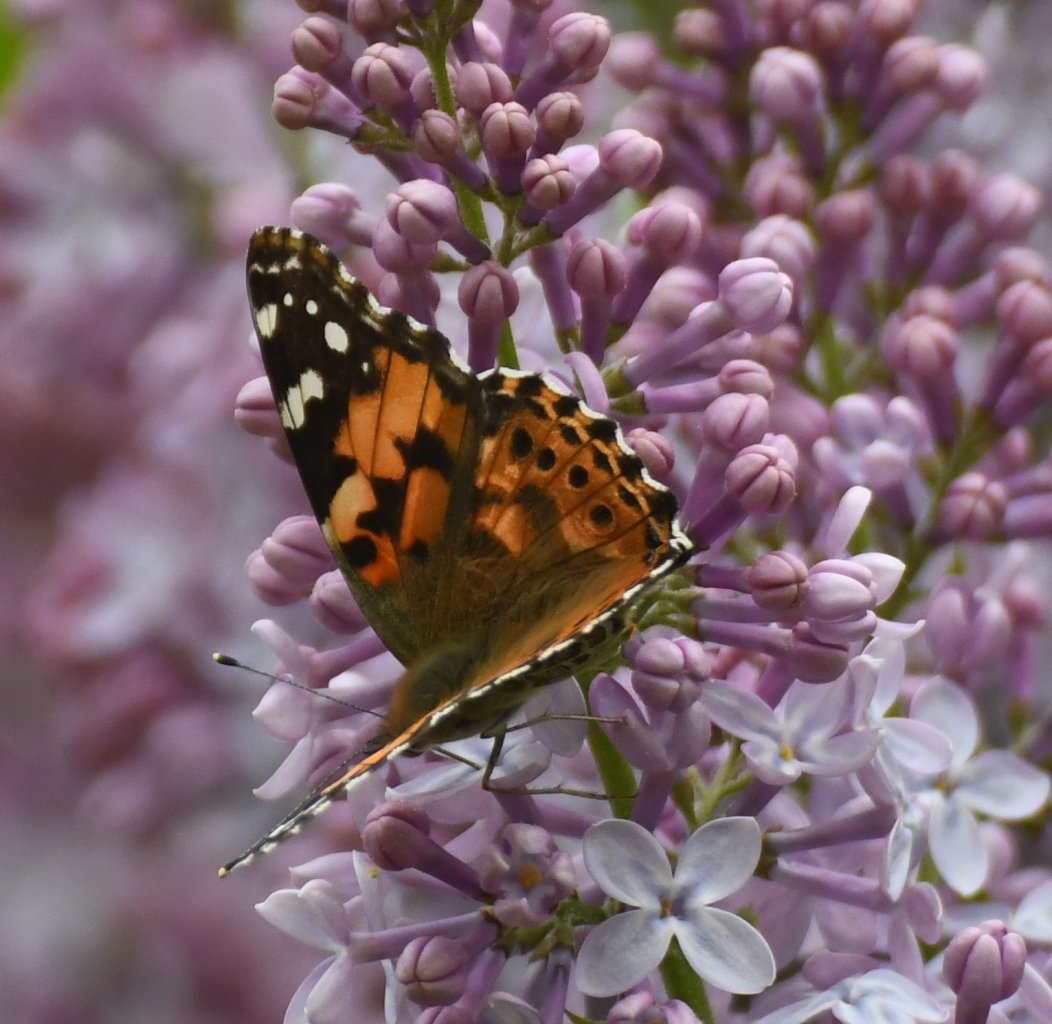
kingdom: Animalia
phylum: Arthropoda
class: Insecta
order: Lepidoptera
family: Nymphalidae
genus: Vanessa
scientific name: Vanessa cardui
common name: Painted Lady
